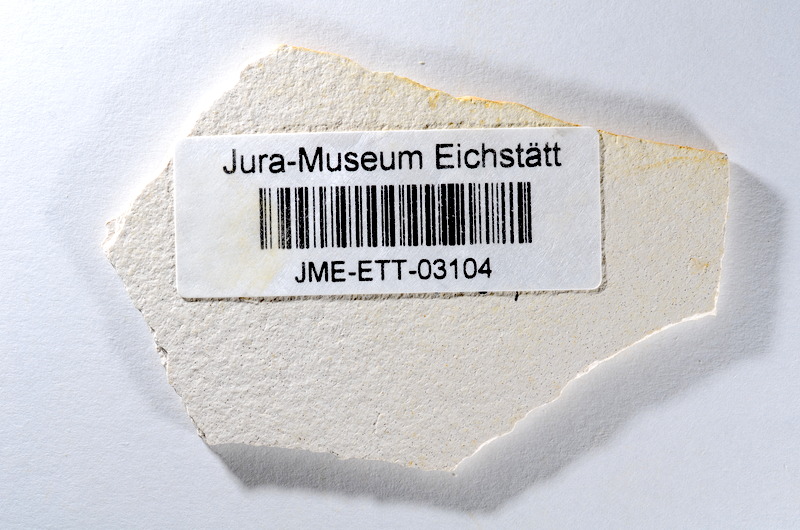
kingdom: Animalia
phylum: Chordata
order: Salmoniformes
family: Orthogonikleithridae
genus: Orthogonikleithrus
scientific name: Orthogonikleithrus hoelli
